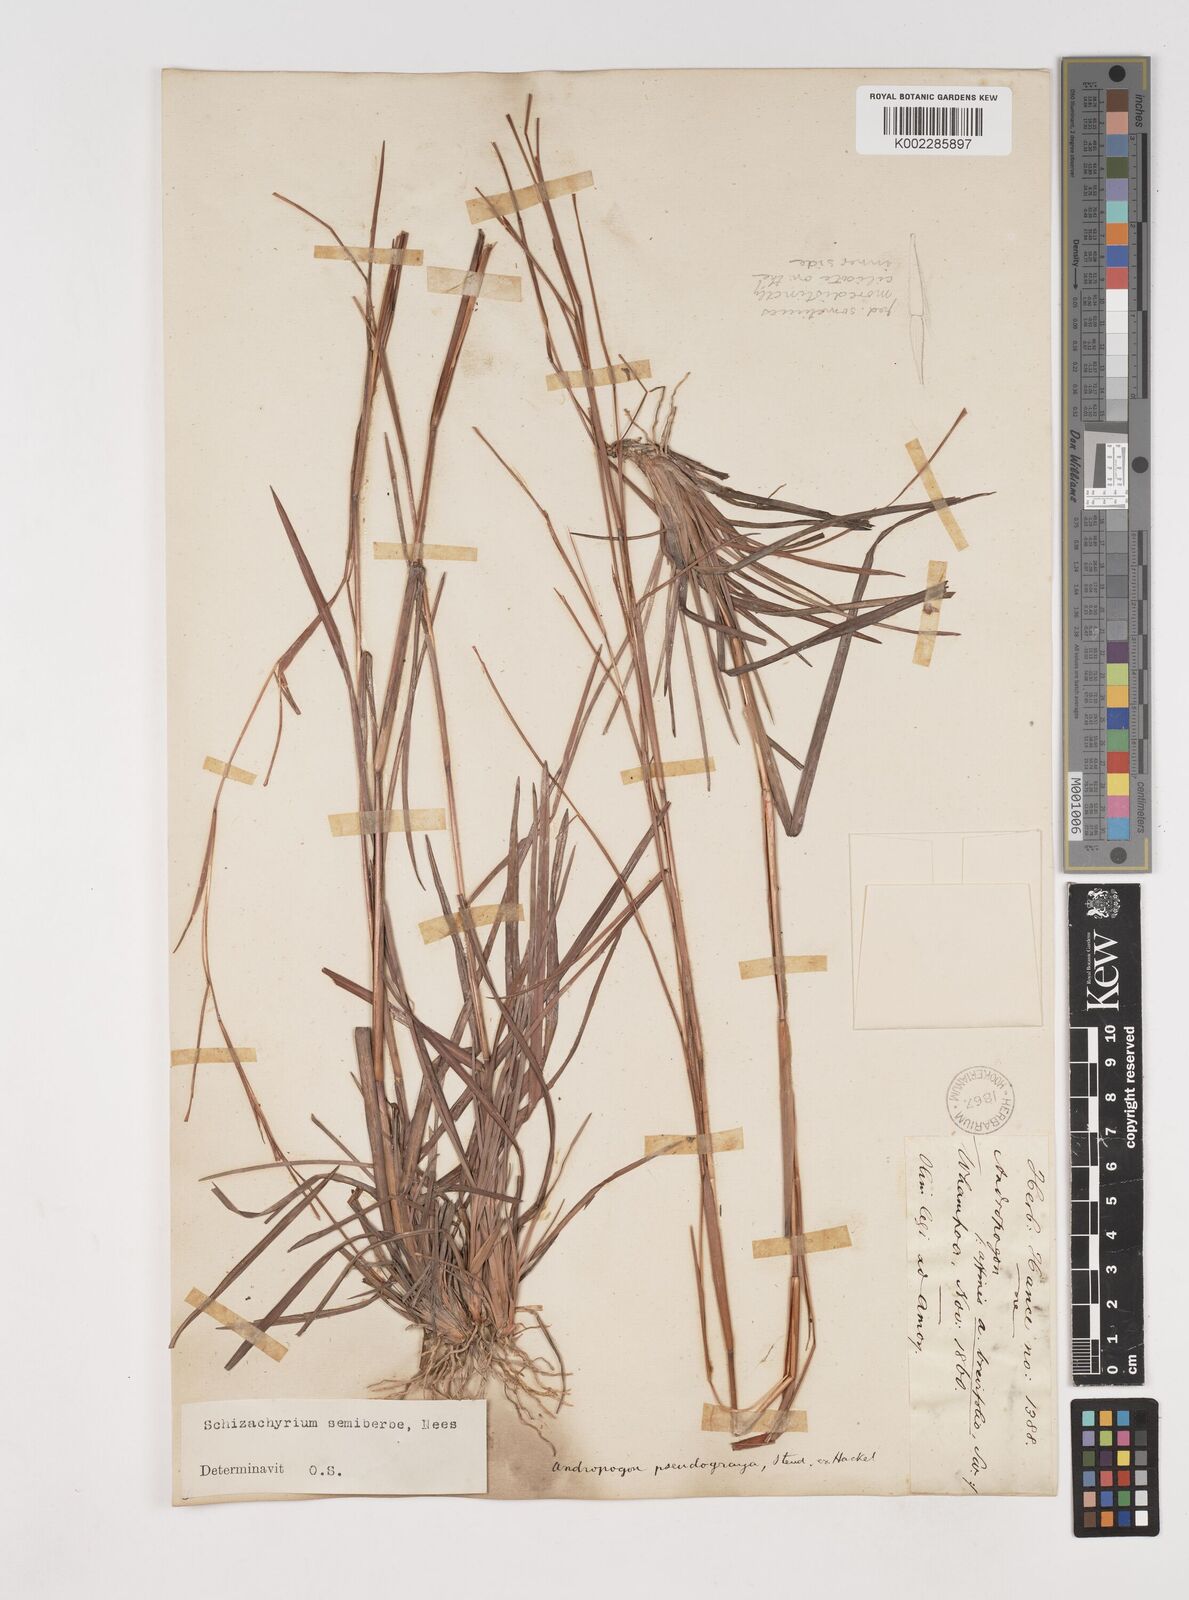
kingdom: Plantae
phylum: Tracheophyta
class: Liliopsida
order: Poales
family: Poaceae
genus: Schizachyrium
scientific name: Schizachyrium sanguineum
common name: Crimson bluestem
